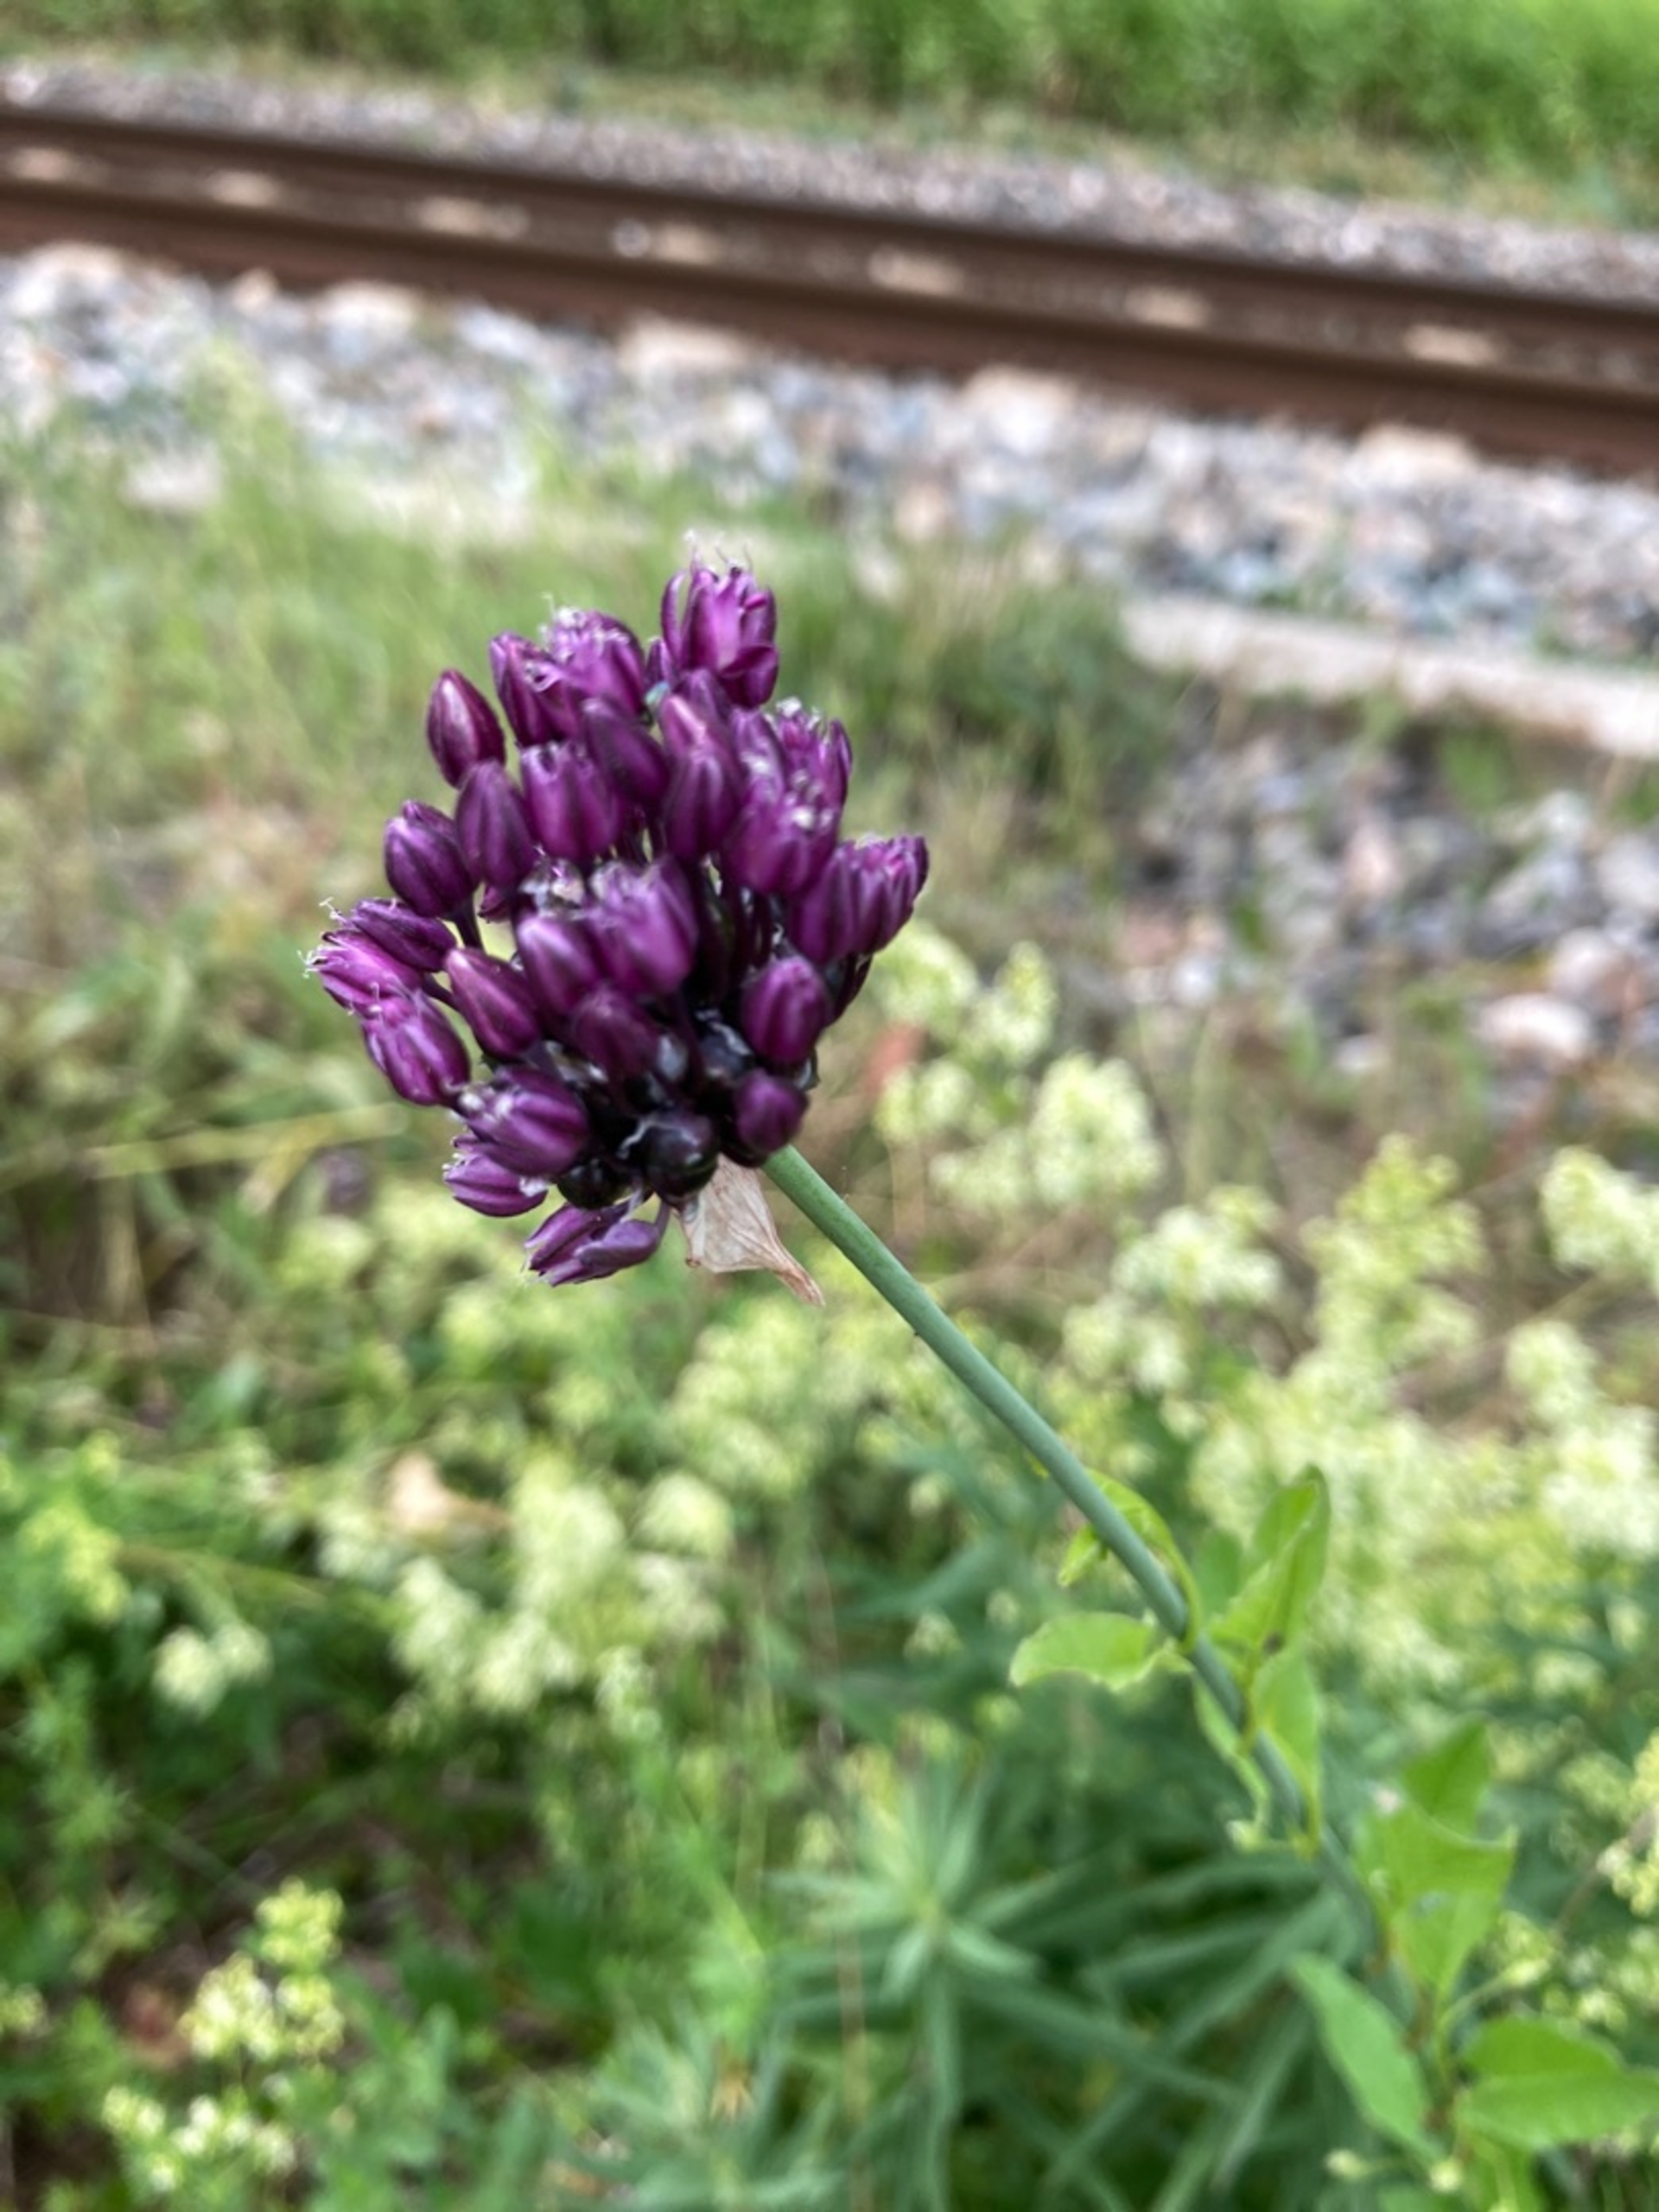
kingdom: Plantae
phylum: Tracheophyta
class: Liliopsida
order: Asparagales
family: Amaryllidaceae
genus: Allium
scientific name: Allium scorodoprasum
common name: Skov-løg
